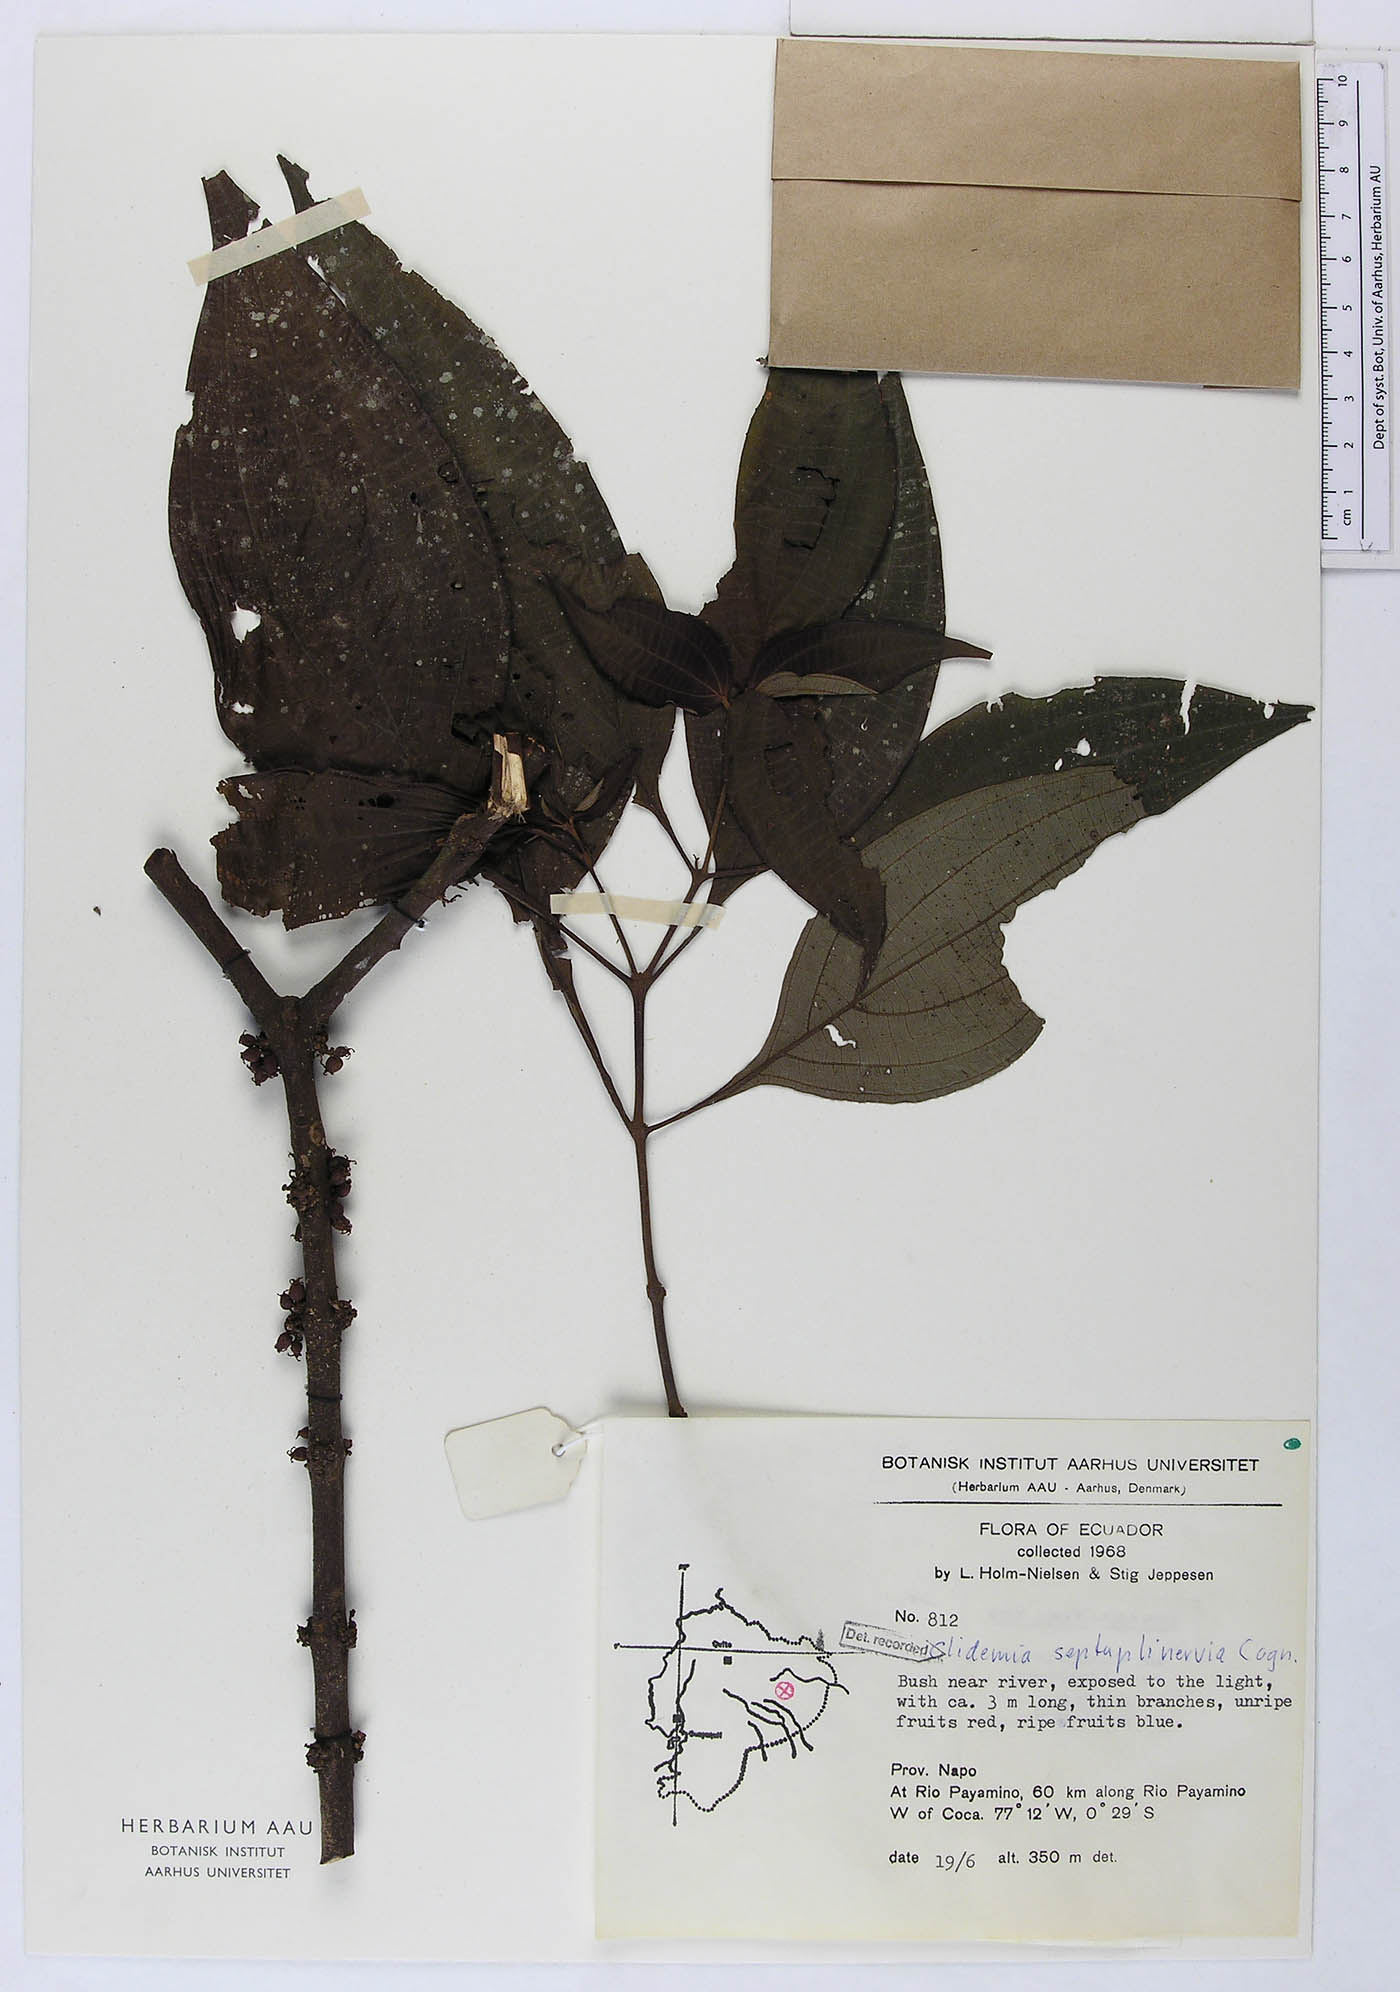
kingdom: Plantae
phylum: Tracheophyta
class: Magnoliopsida
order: Myrtales
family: Melastomataceae
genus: Miconia
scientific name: Miconia trichocalyx
